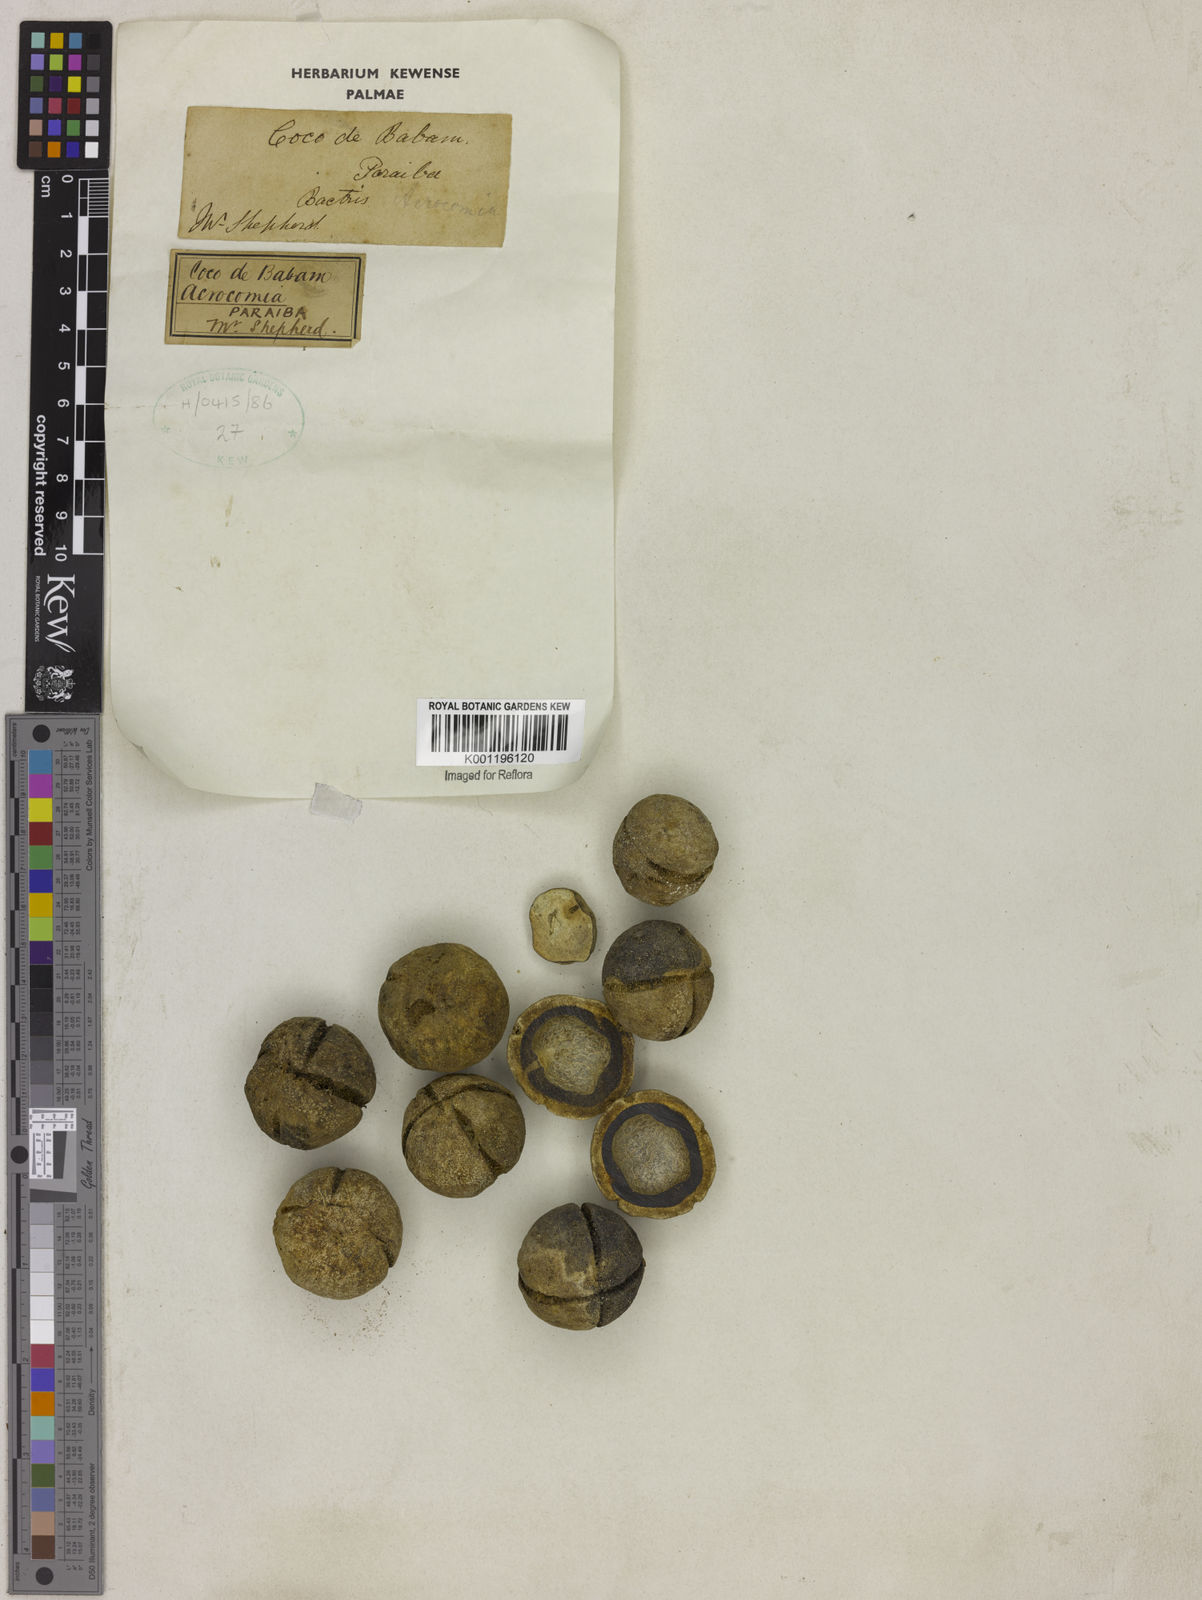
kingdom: Plantae
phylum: Tracheophyta
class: Liliopsida
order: Arecales
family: Arecaceae
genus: Acrocomia
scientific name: Acrocomia
